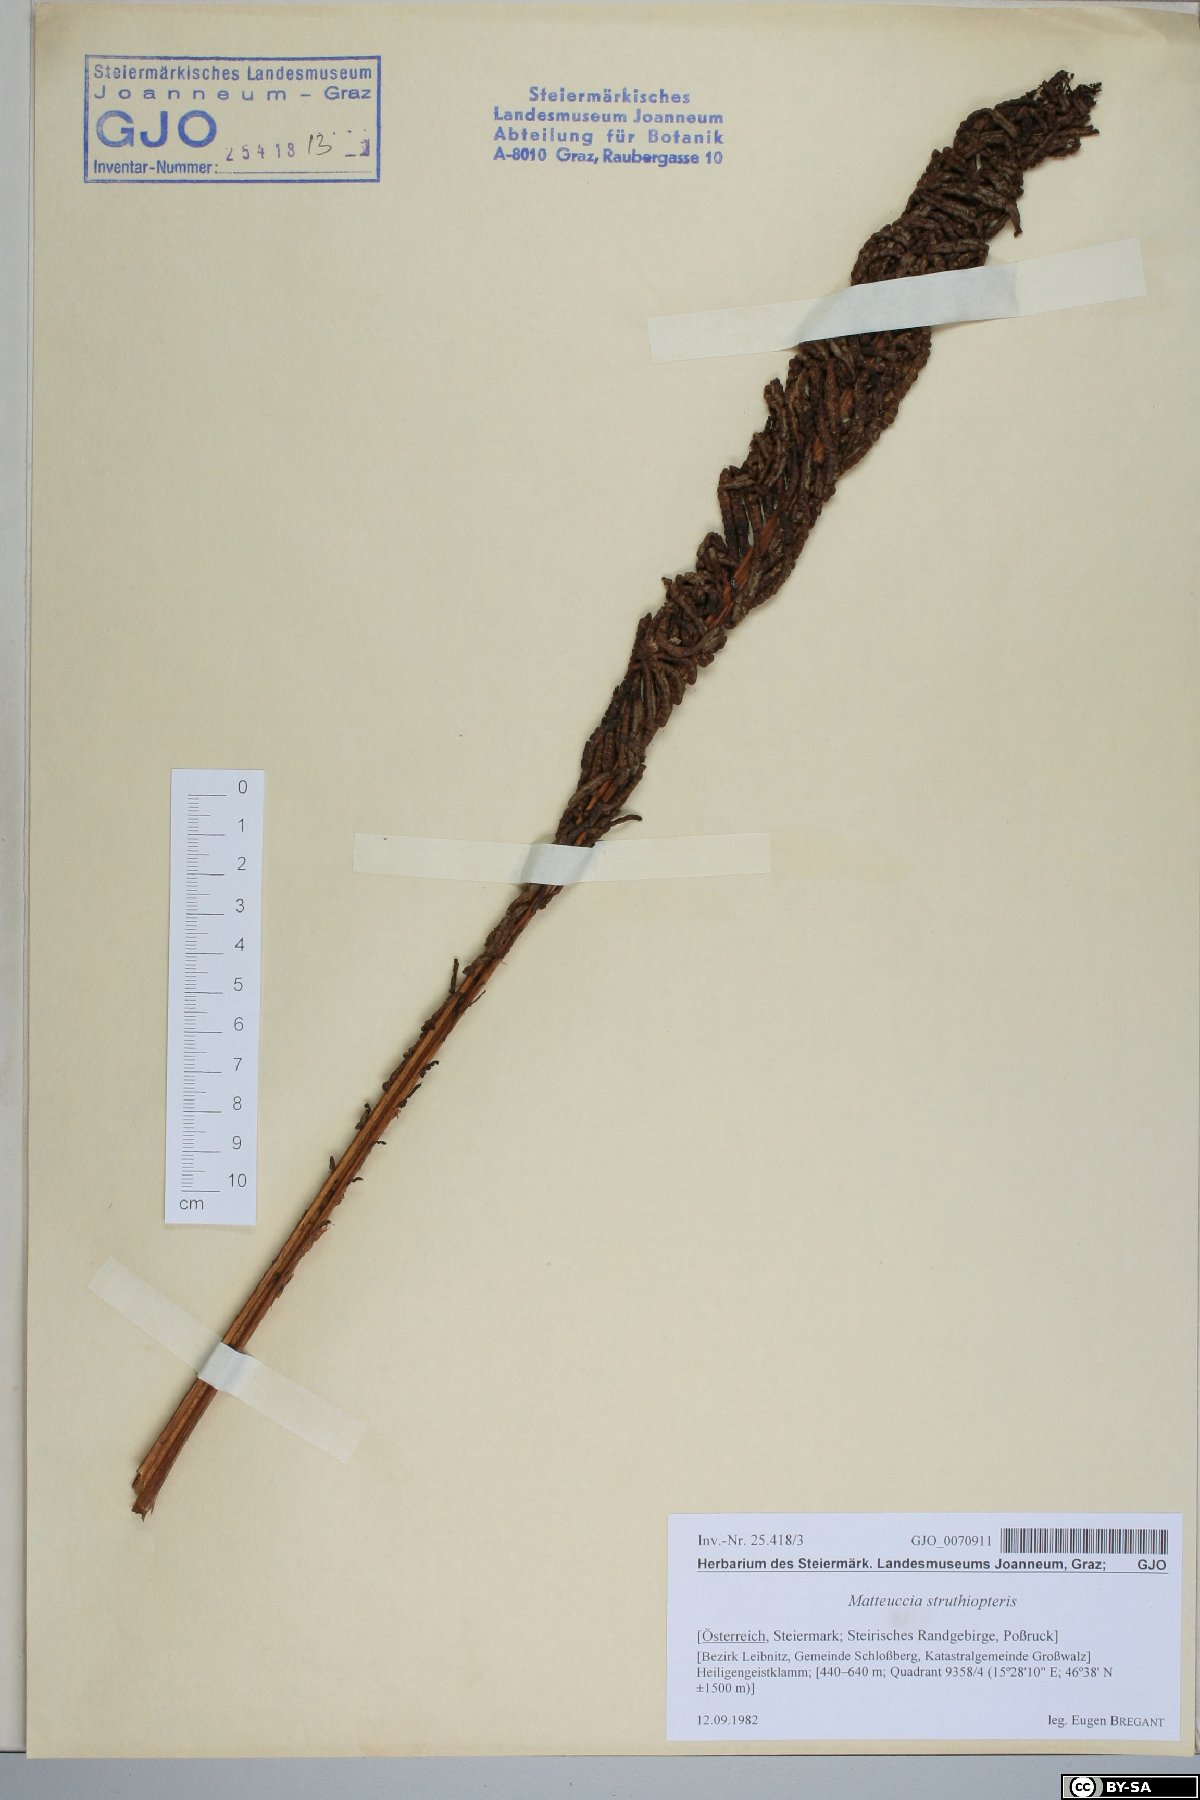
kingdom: Plantae
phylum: Tracheophyta
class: Polypodiopsida
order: Polypodiales
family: Onocleaceae
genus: Matteuccia
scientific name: Matteuccia struthiopteris
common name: Ostrich fern
